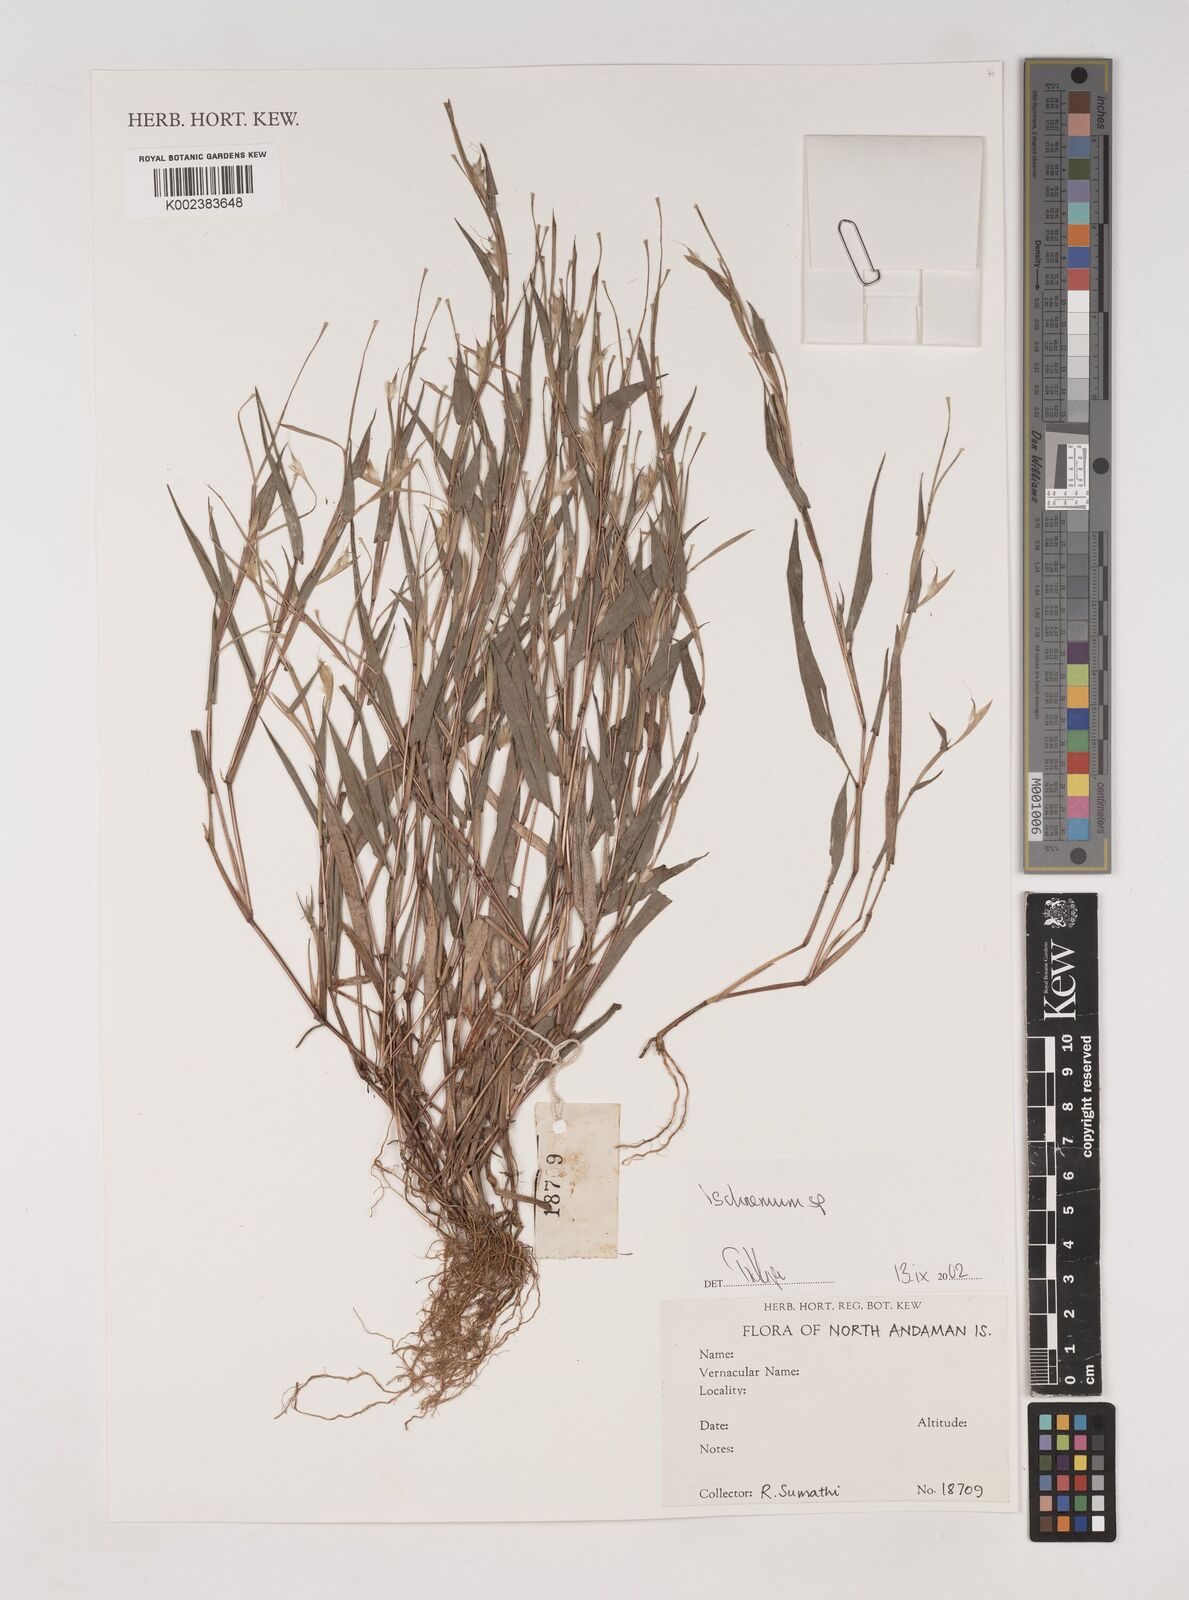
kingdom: Plantae
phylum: Tracheophyta
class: Liliopsida
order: Poales
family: Poaceae
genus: Ischaemum
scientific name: Ischaemum
